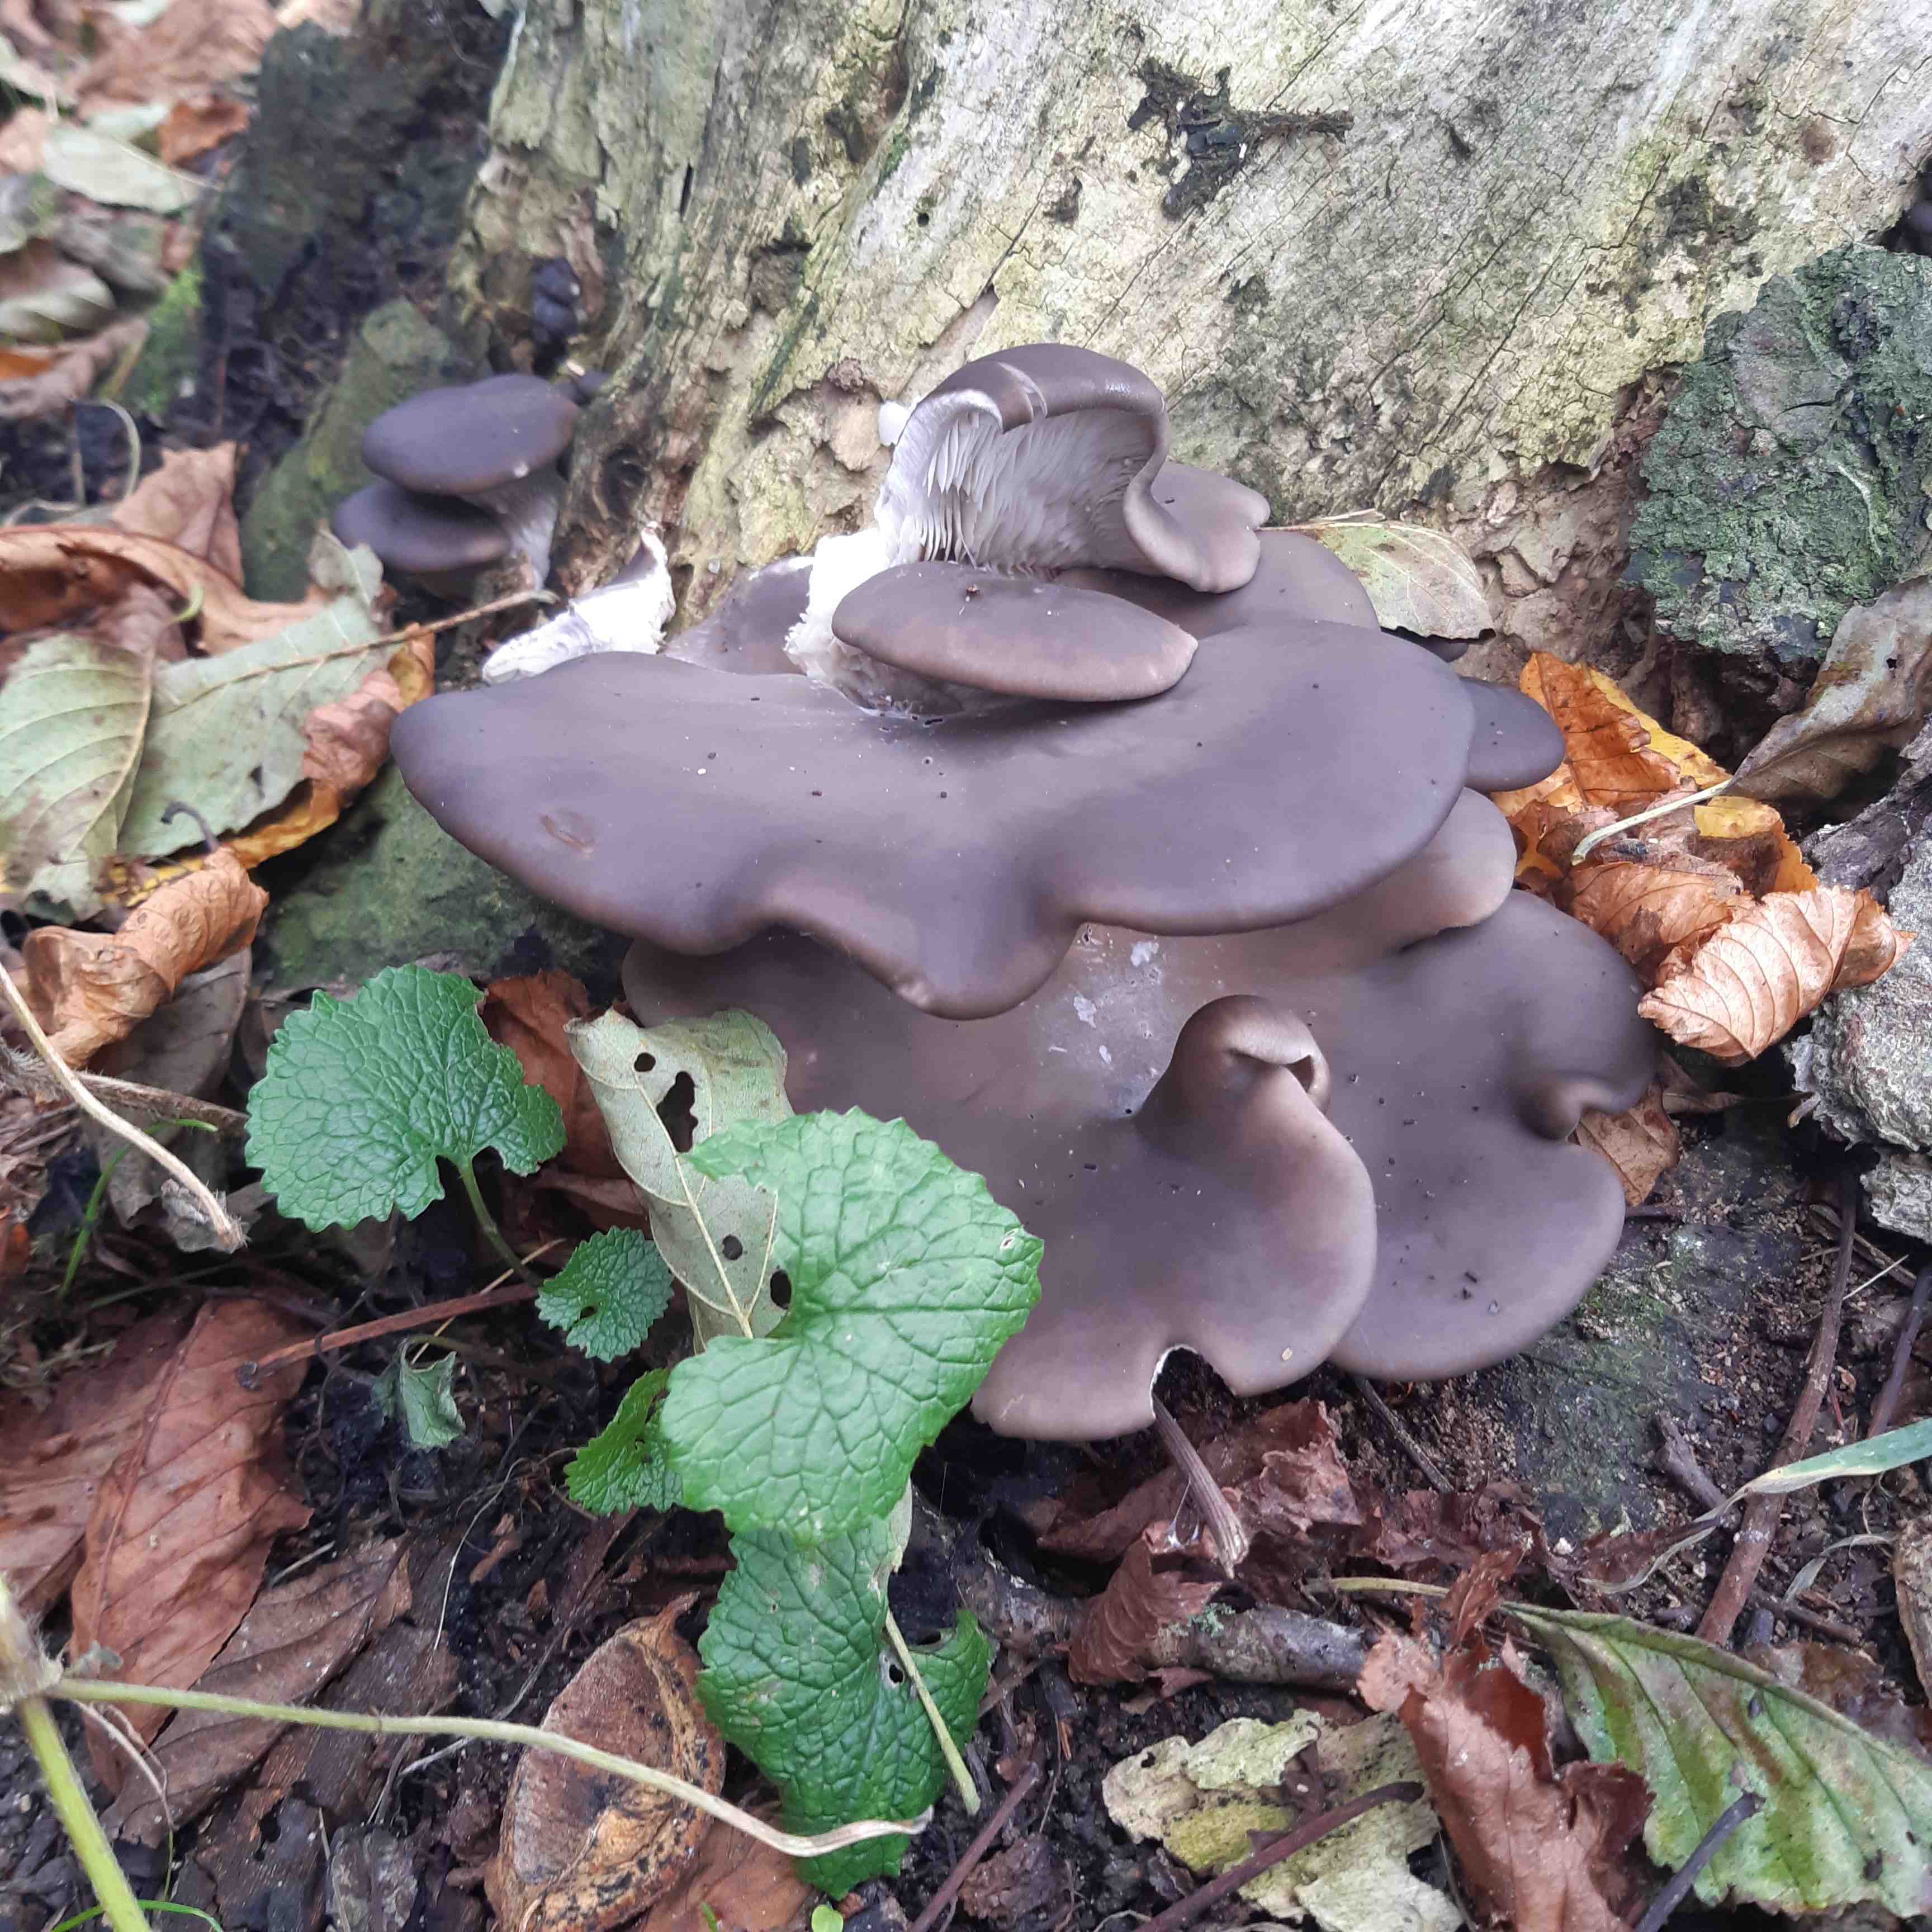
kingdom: Fungi
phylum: Basidiomycota
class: Agaricomycetes
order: Agaricales
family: Pleurotaceae
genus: Pleurotus
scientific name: Pleurotus ostreatus
